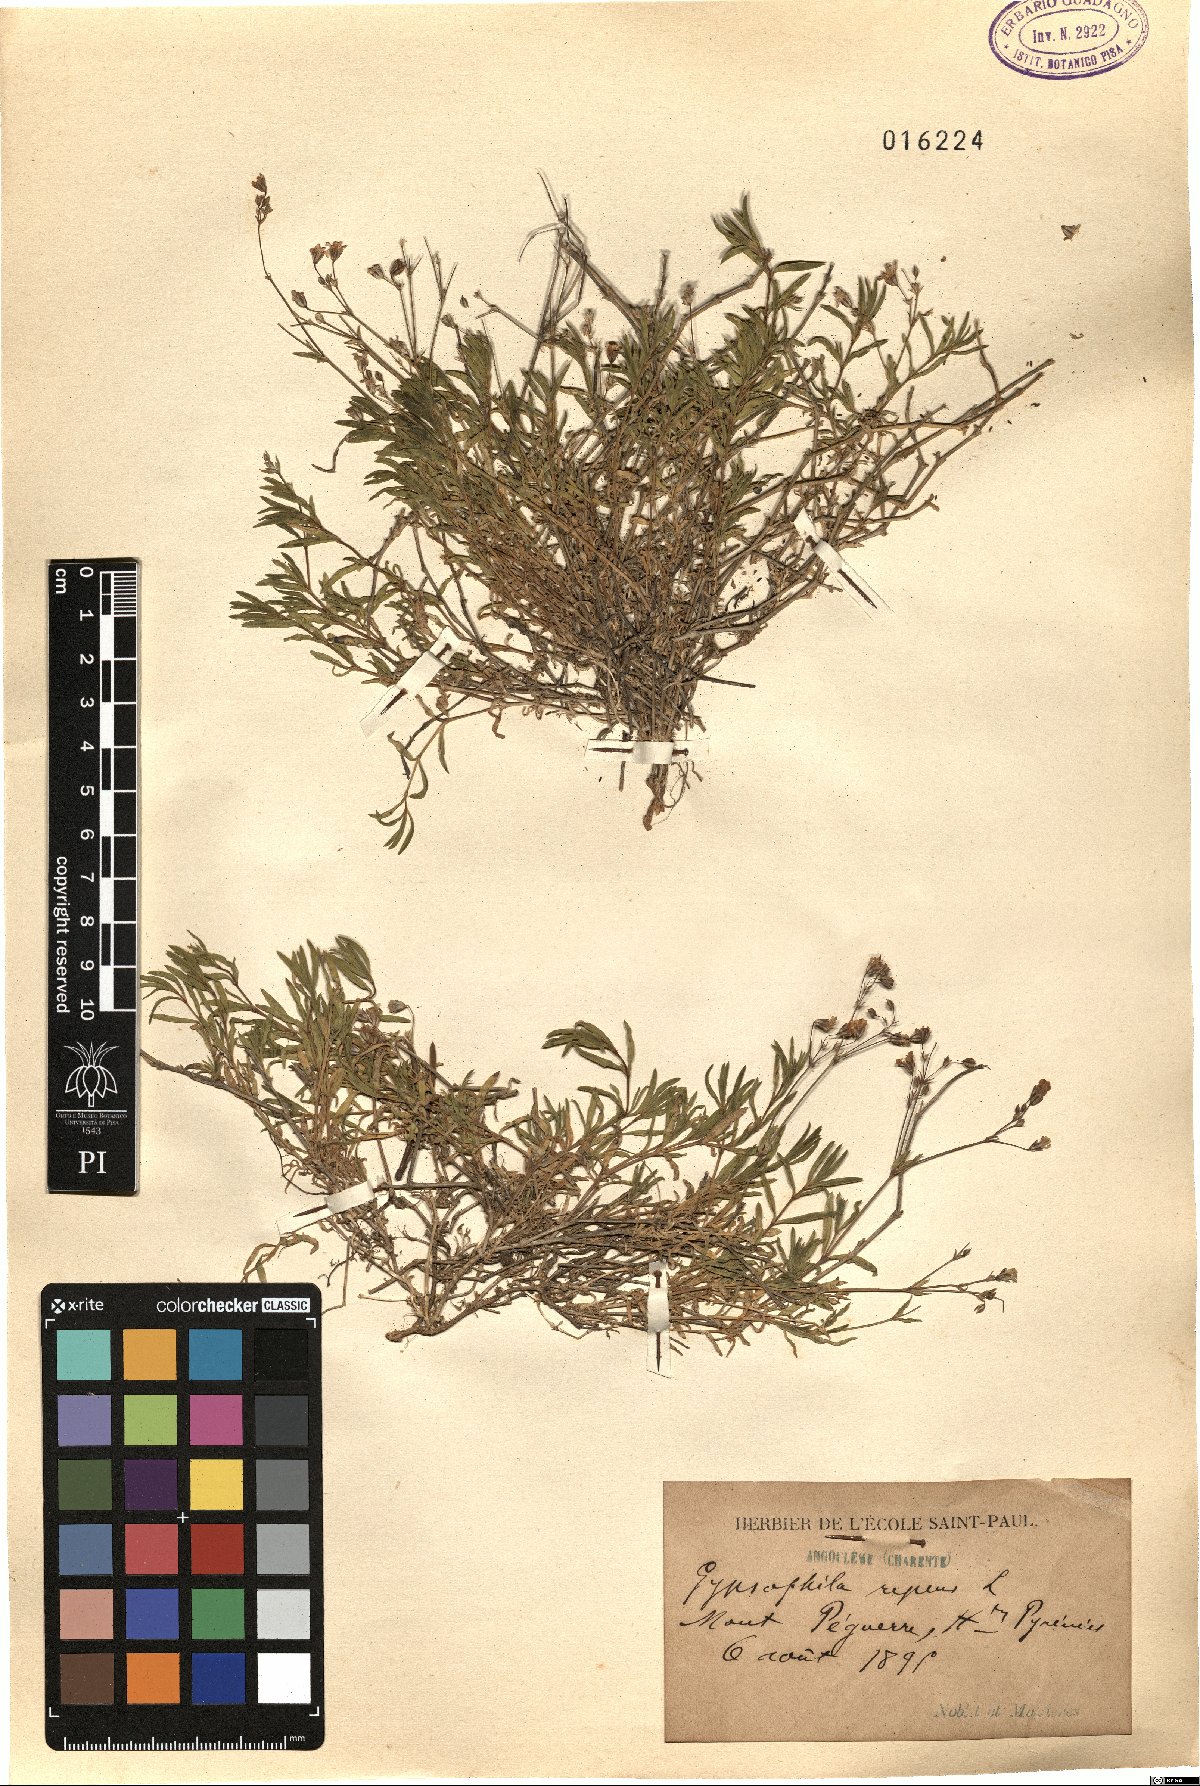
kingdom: Plantae
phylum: Tracheophyta
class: Magnoliopsida
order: Caryophyllales
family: Caryophyllaceae
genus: Gypsophila
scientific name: Gypsophila repens
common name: Creeping baby's-breath
